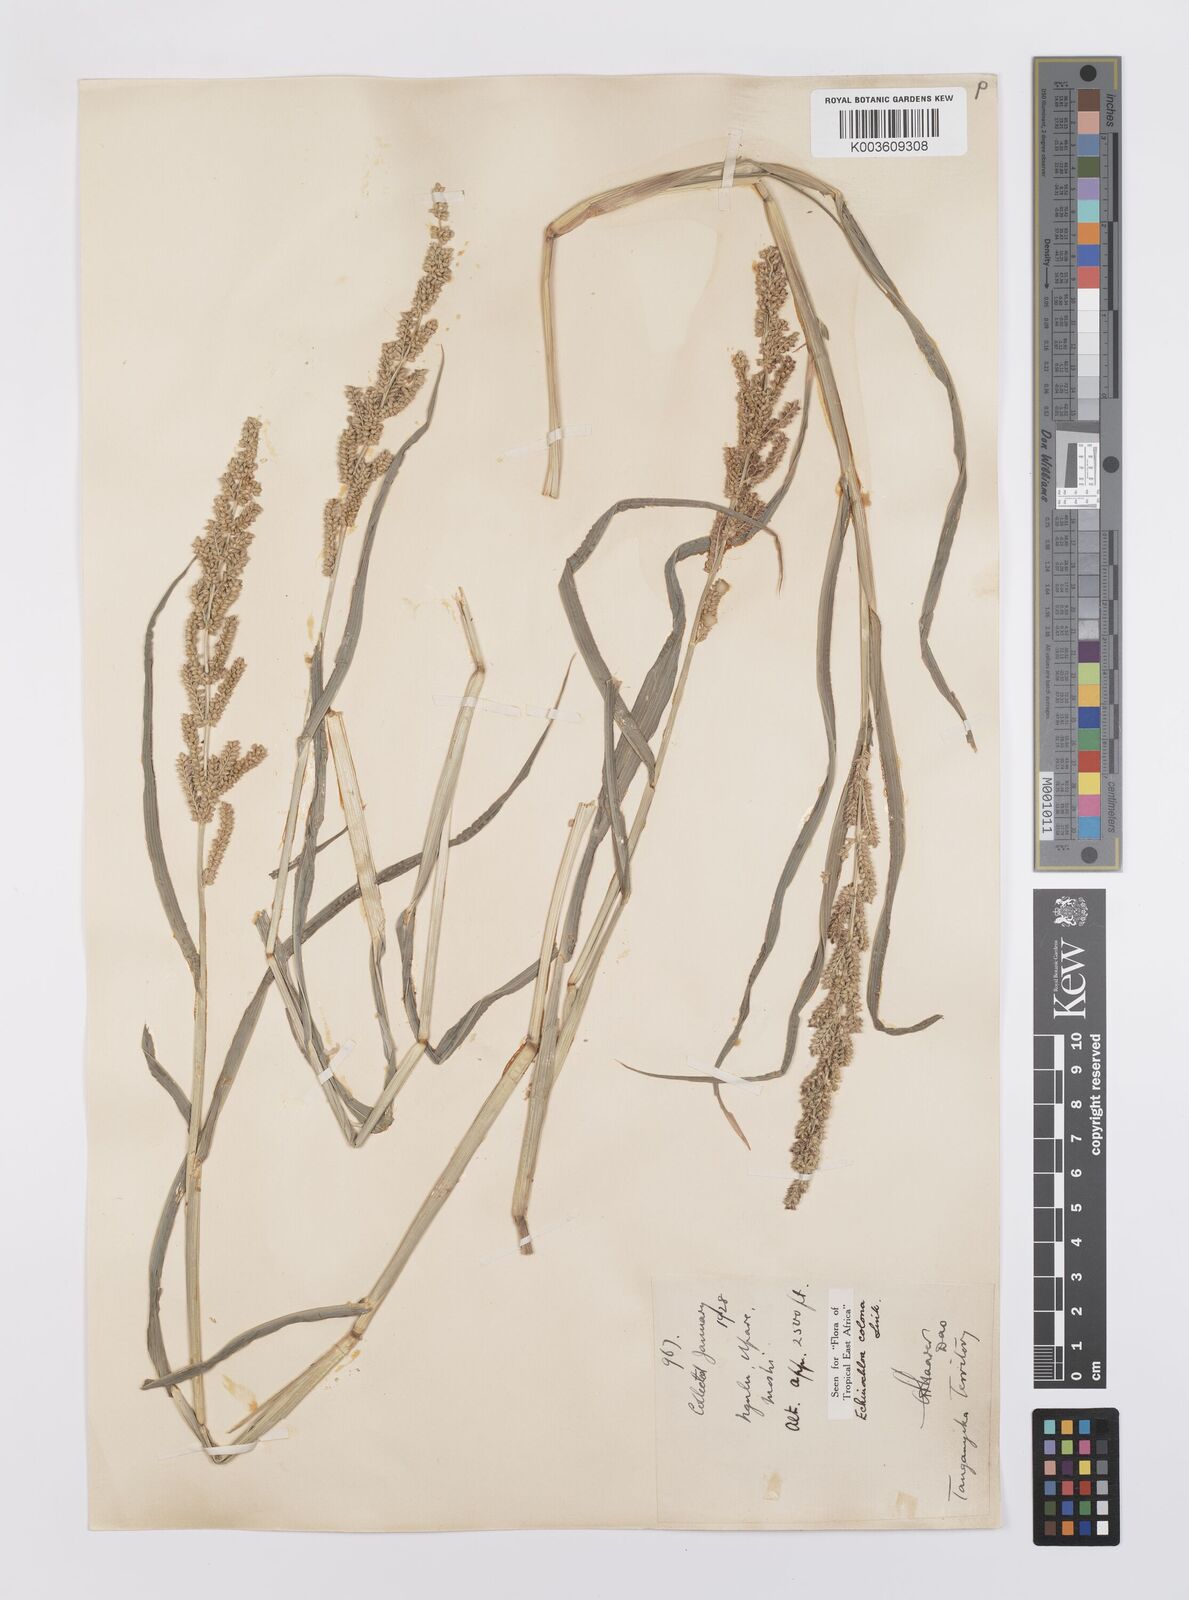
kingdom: Plantae
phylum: Tracheophyta
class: Liliopsida
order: Poales
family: Poaceae
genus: Echinochloa
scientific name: Echinochloa colonum
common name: Jungle rice
